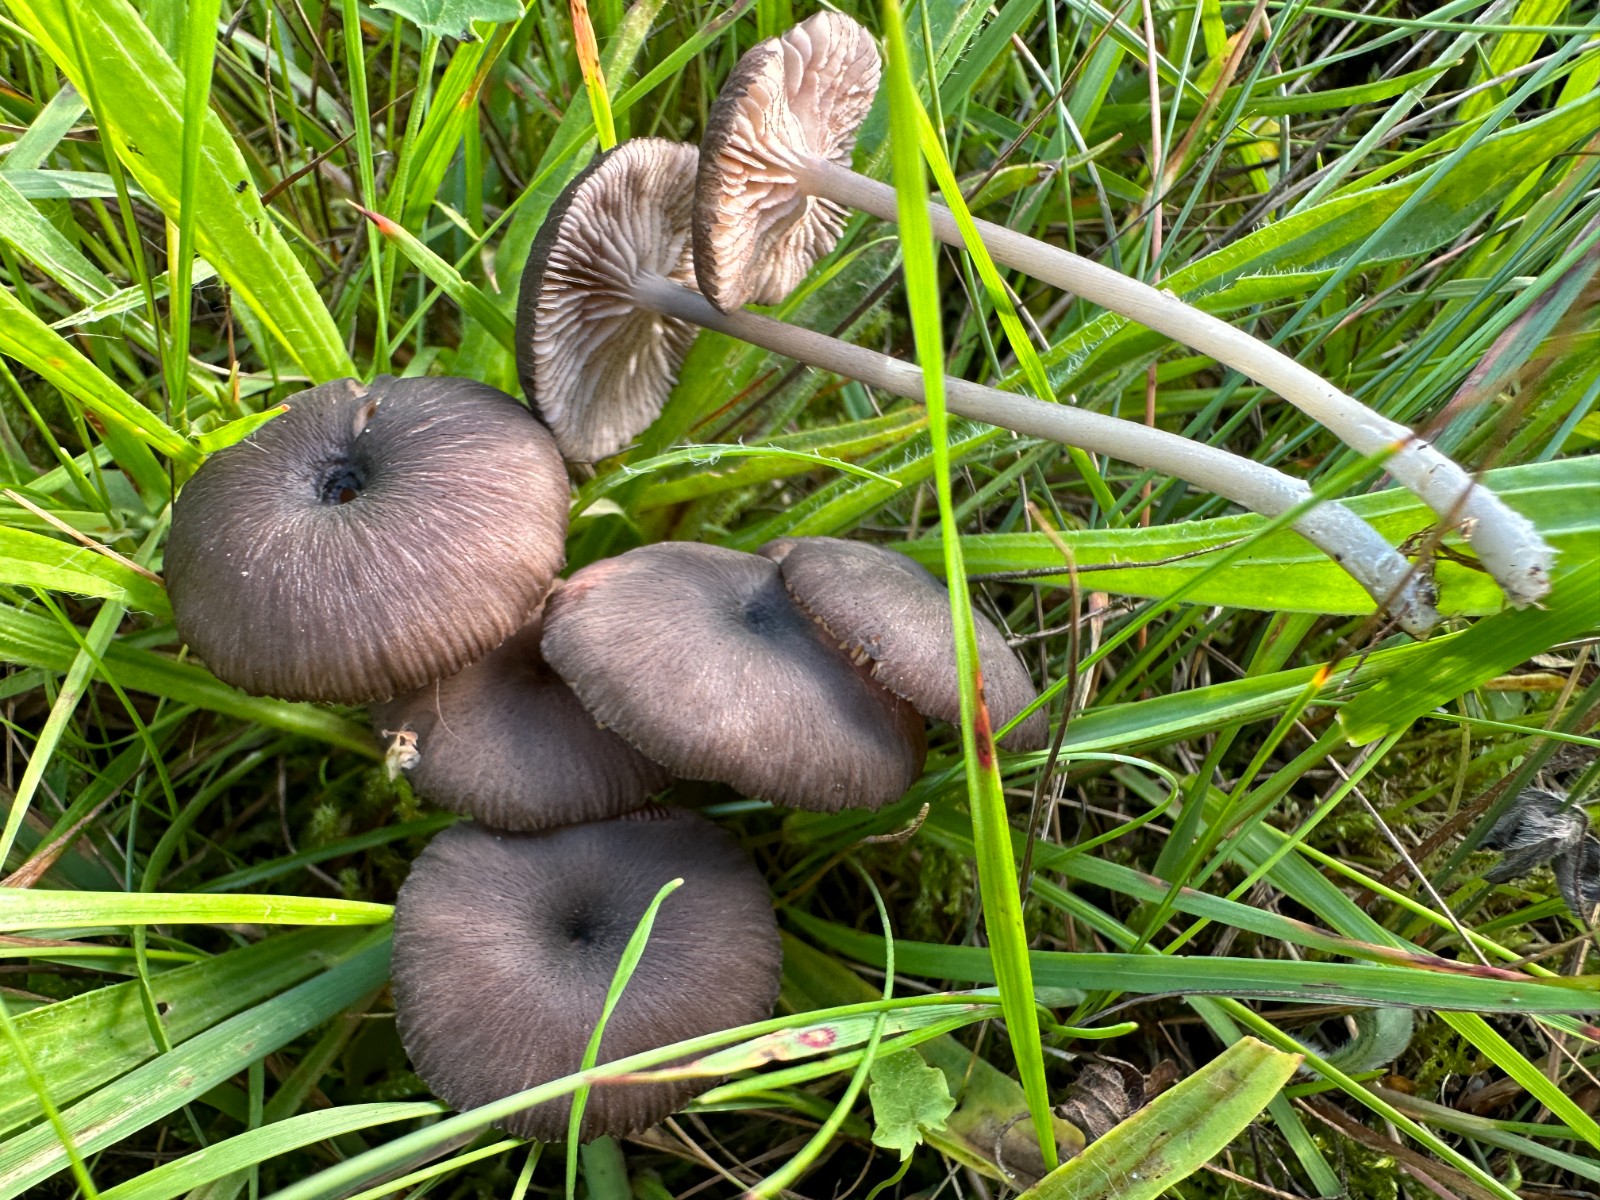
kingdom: Fungi
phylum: Basidiomycota
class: Agaricomycetes
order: Agaricales
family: Entolomataceae
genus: Entoloma
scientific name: Entoloma
